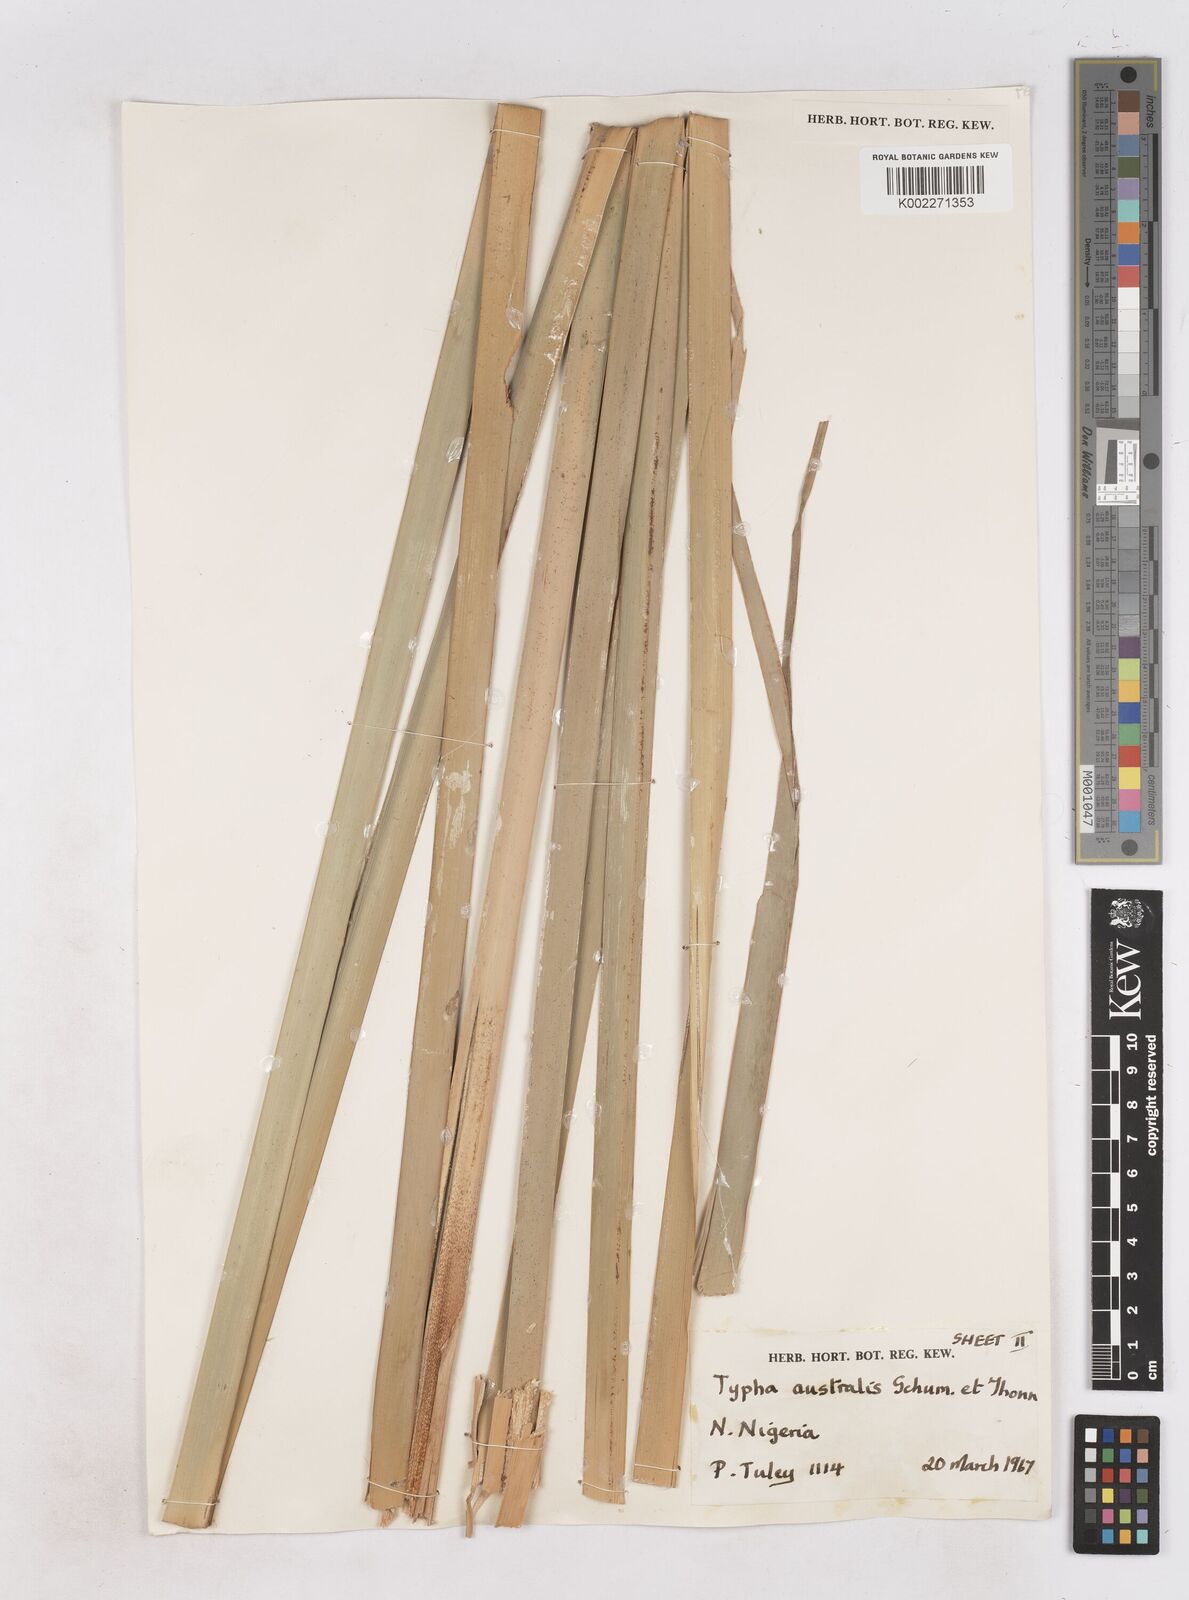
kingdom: Plantae
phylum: Tracheophyta
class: Liliopsida
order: Poales
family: Typhaceae
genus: Typha
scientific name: Typha domingensis
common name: Southern cattail
